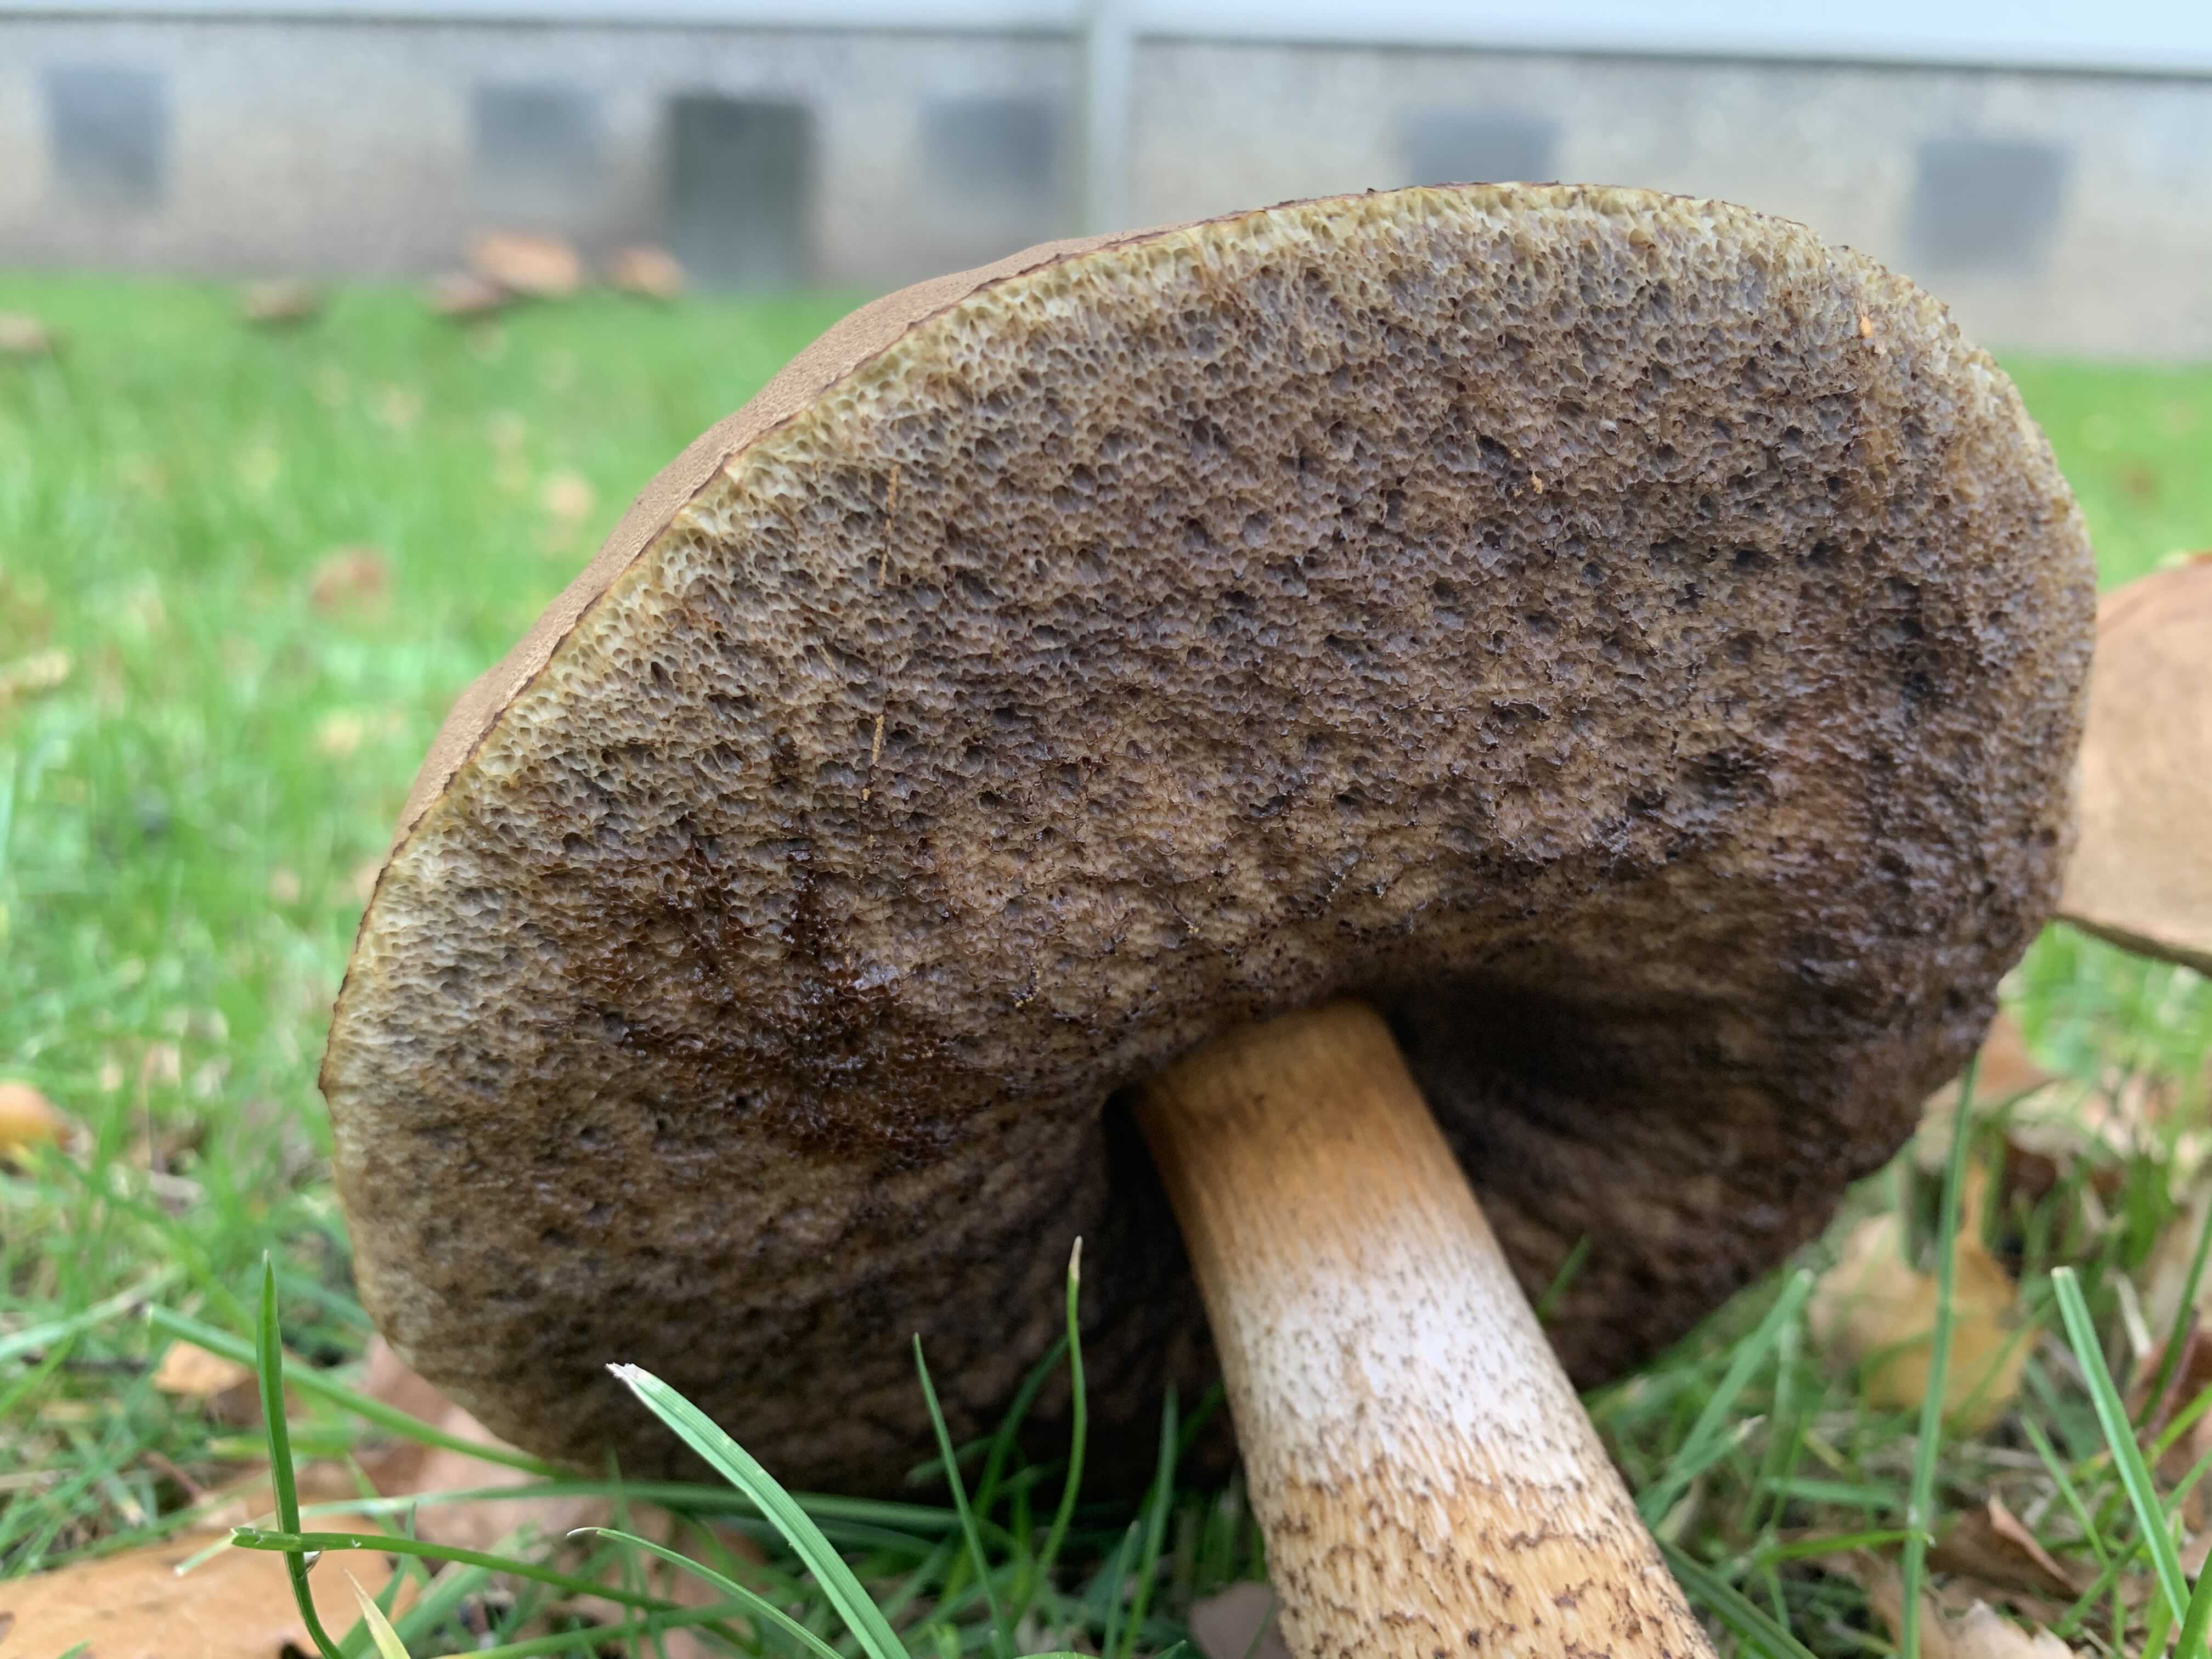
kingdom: Fungi
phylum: Basidiomycota
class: Agaricomycetes
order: Boletales
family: Boletaceae
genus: Leccinum
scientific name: Leccinum scabrum
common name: brun skælrørhat
